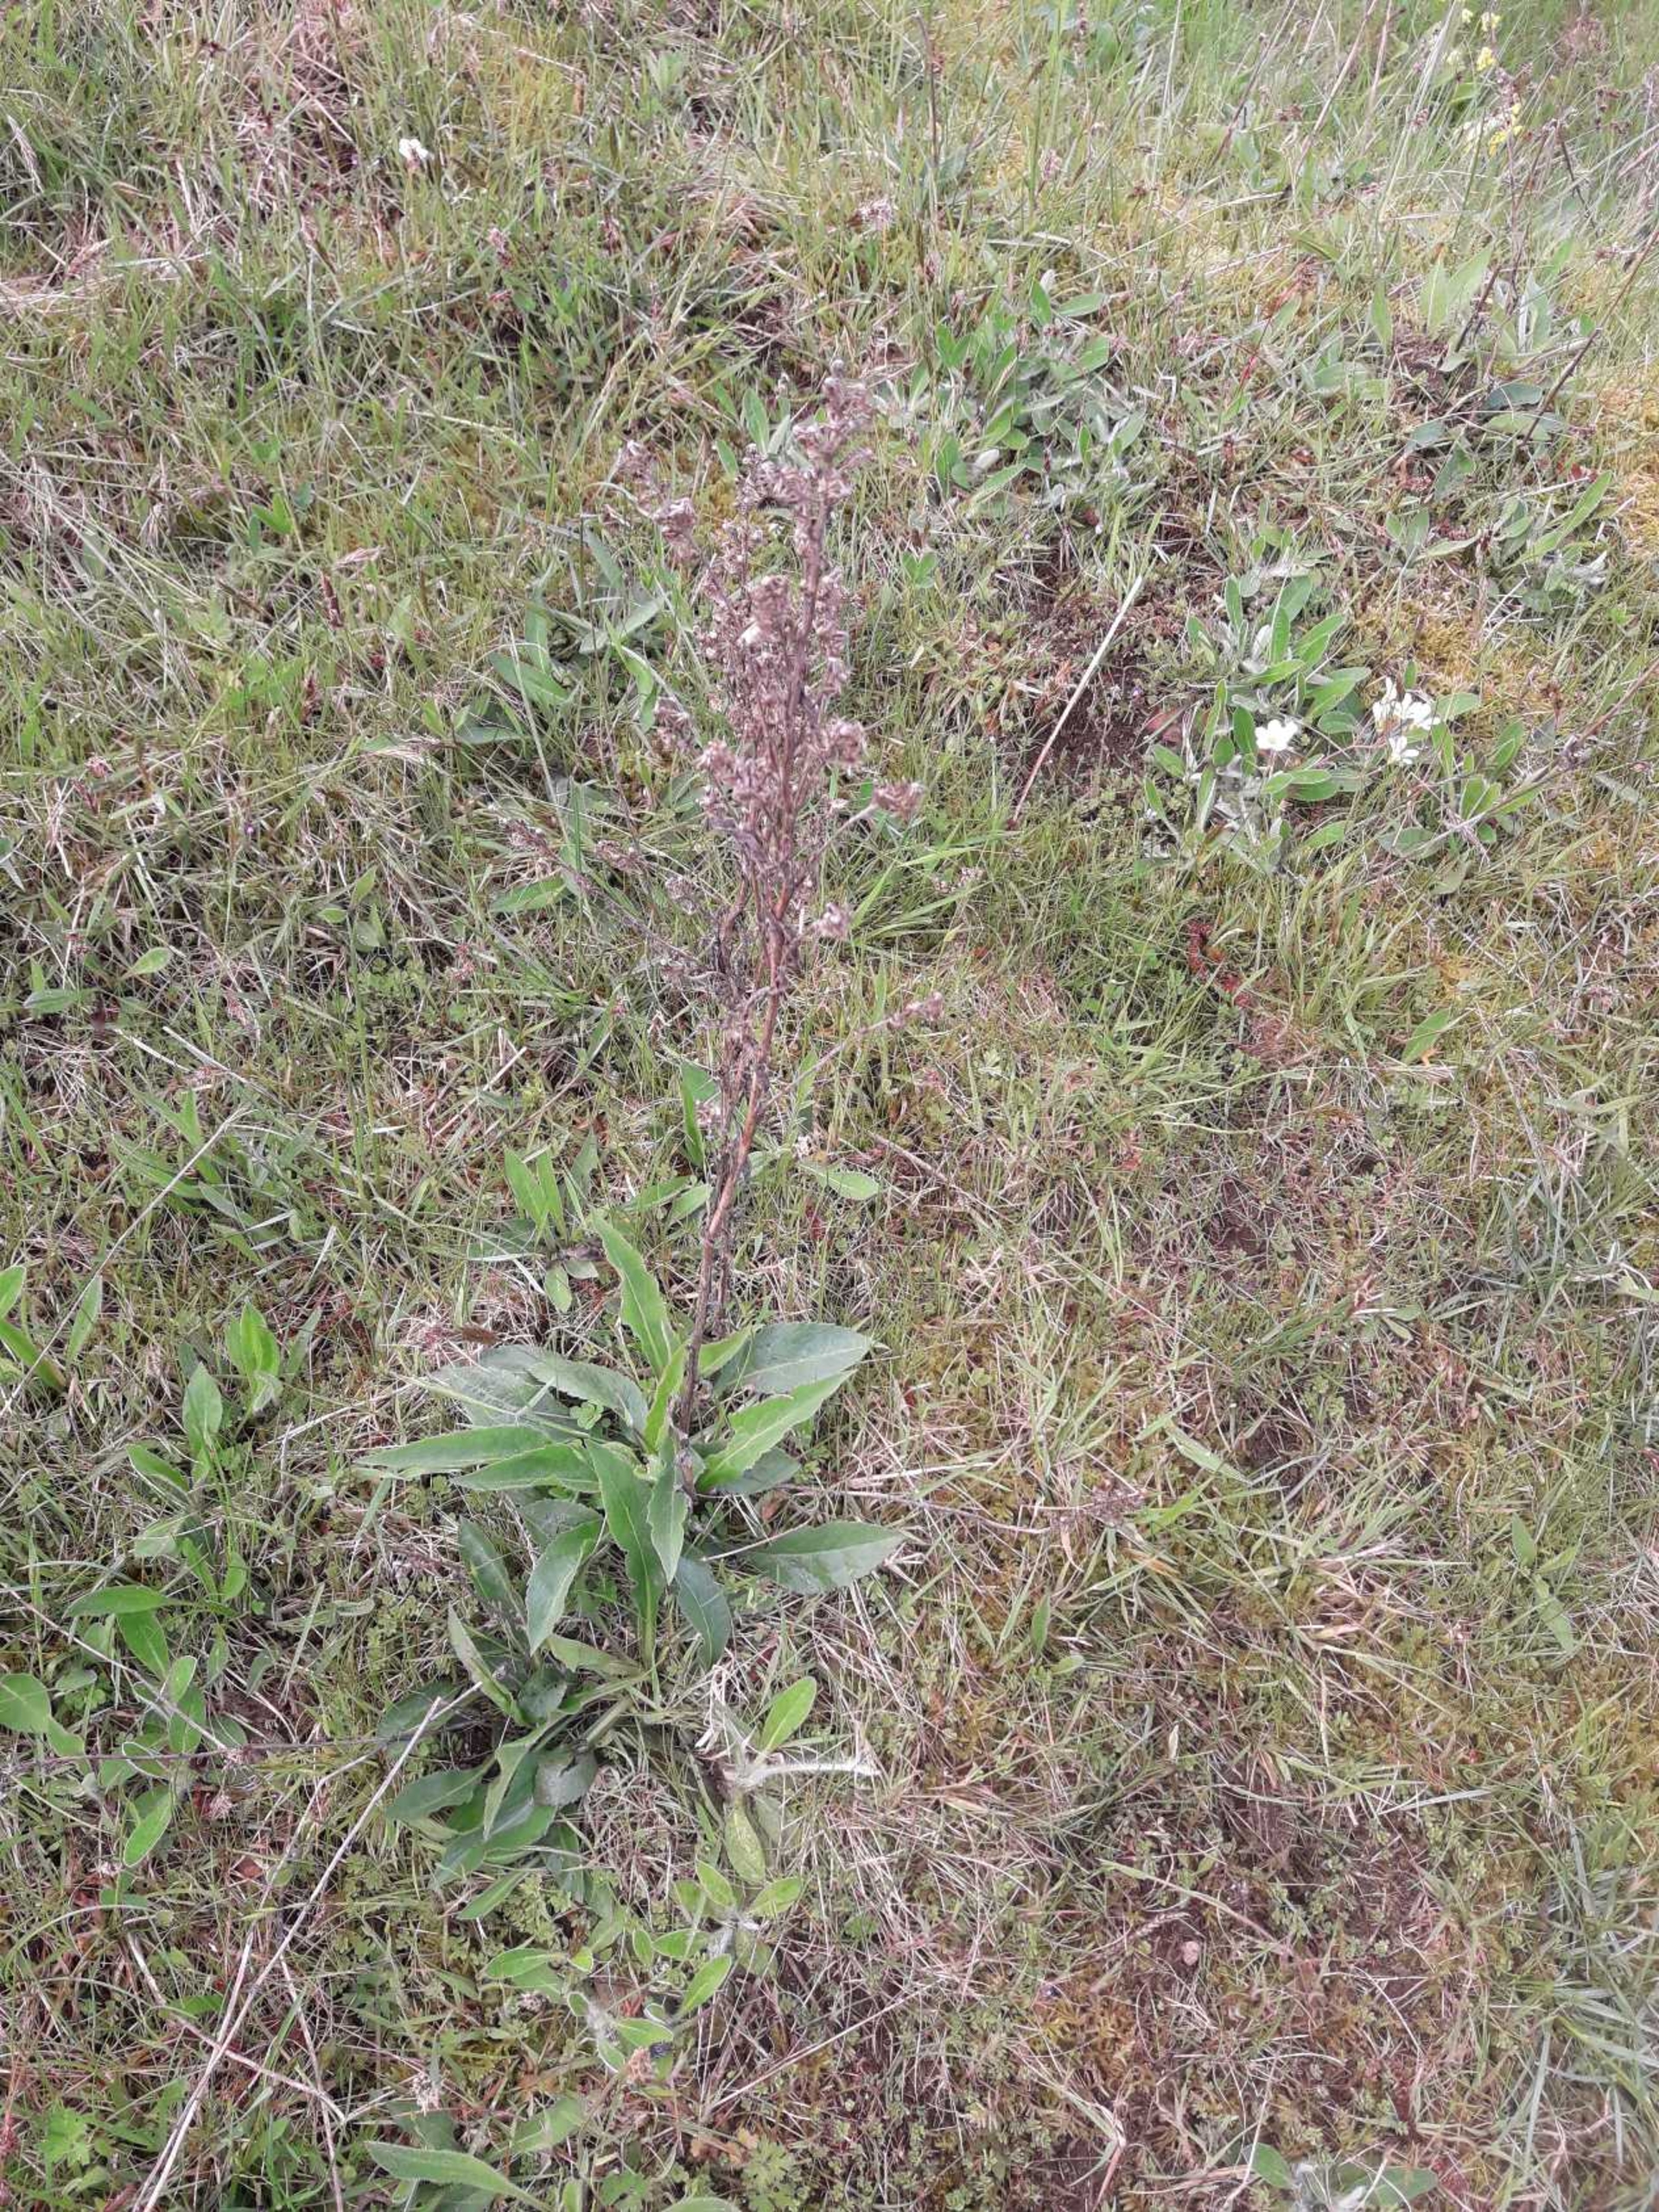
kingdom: Plantae
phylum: Tracheophyta
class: Magnoliopsida
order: Asterales
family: Asteraceae
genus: Solidago
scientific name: Solidago virgaurea
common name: Almindelig gyldenris
